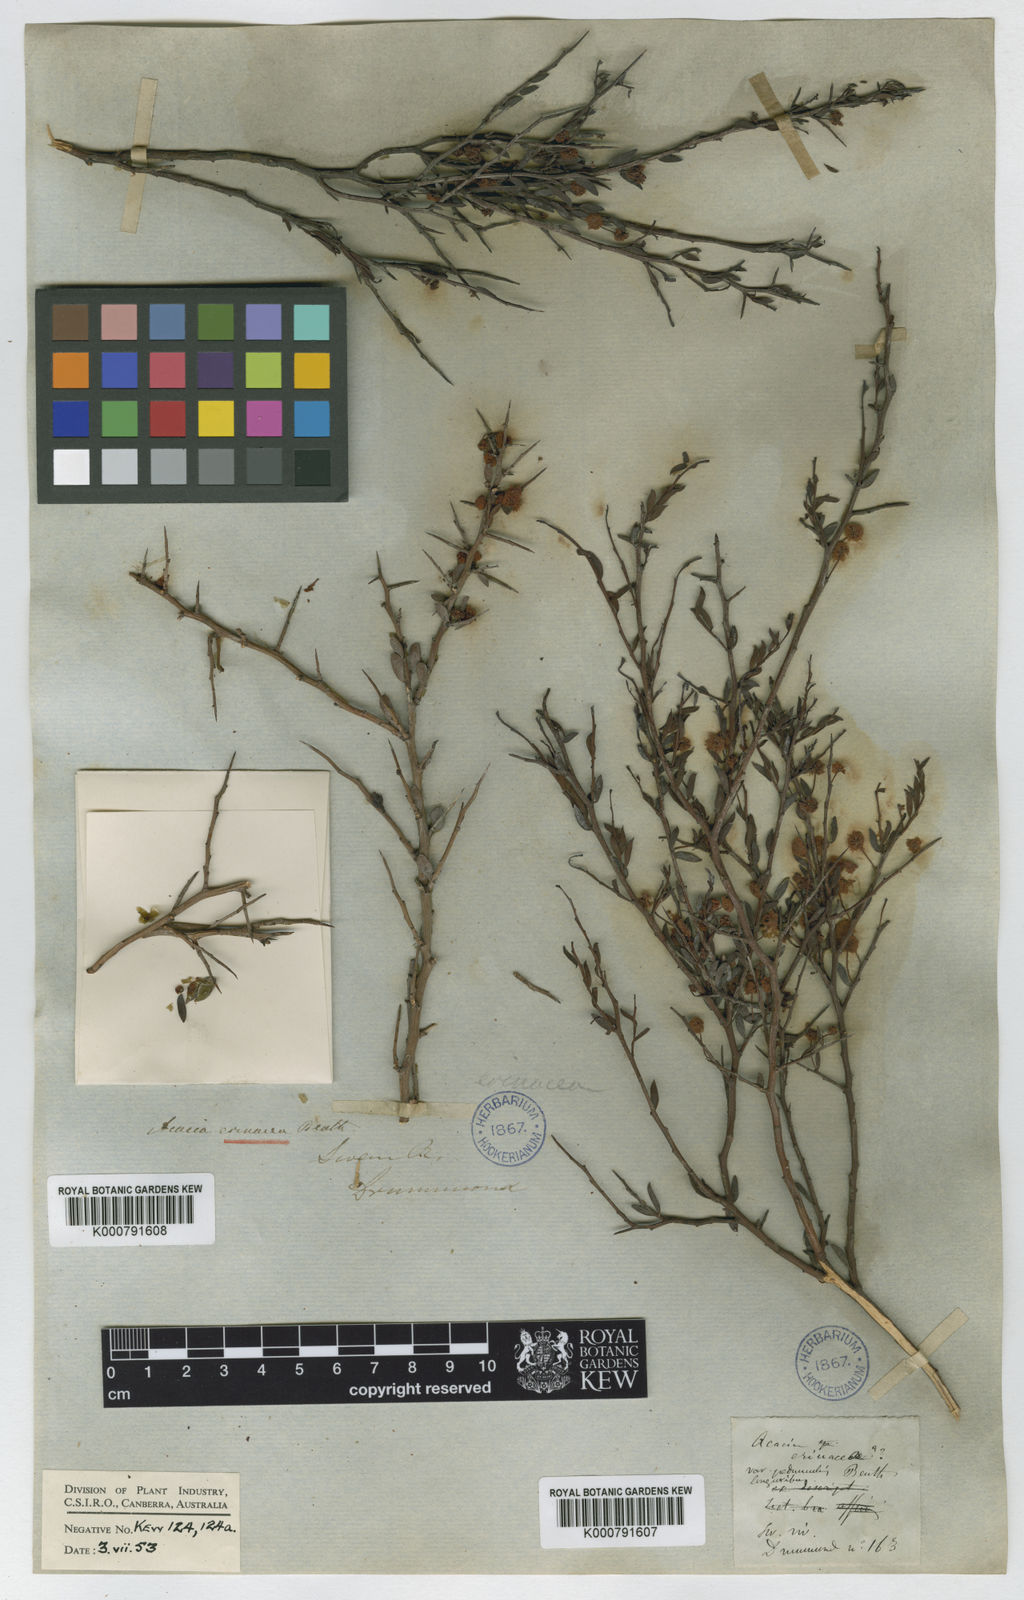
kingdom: Plantae
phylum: Tracheophyta
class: Magnoliopsida
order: Fabales
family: Fabaceae
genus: Acacia
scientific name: Acacia erinacea
